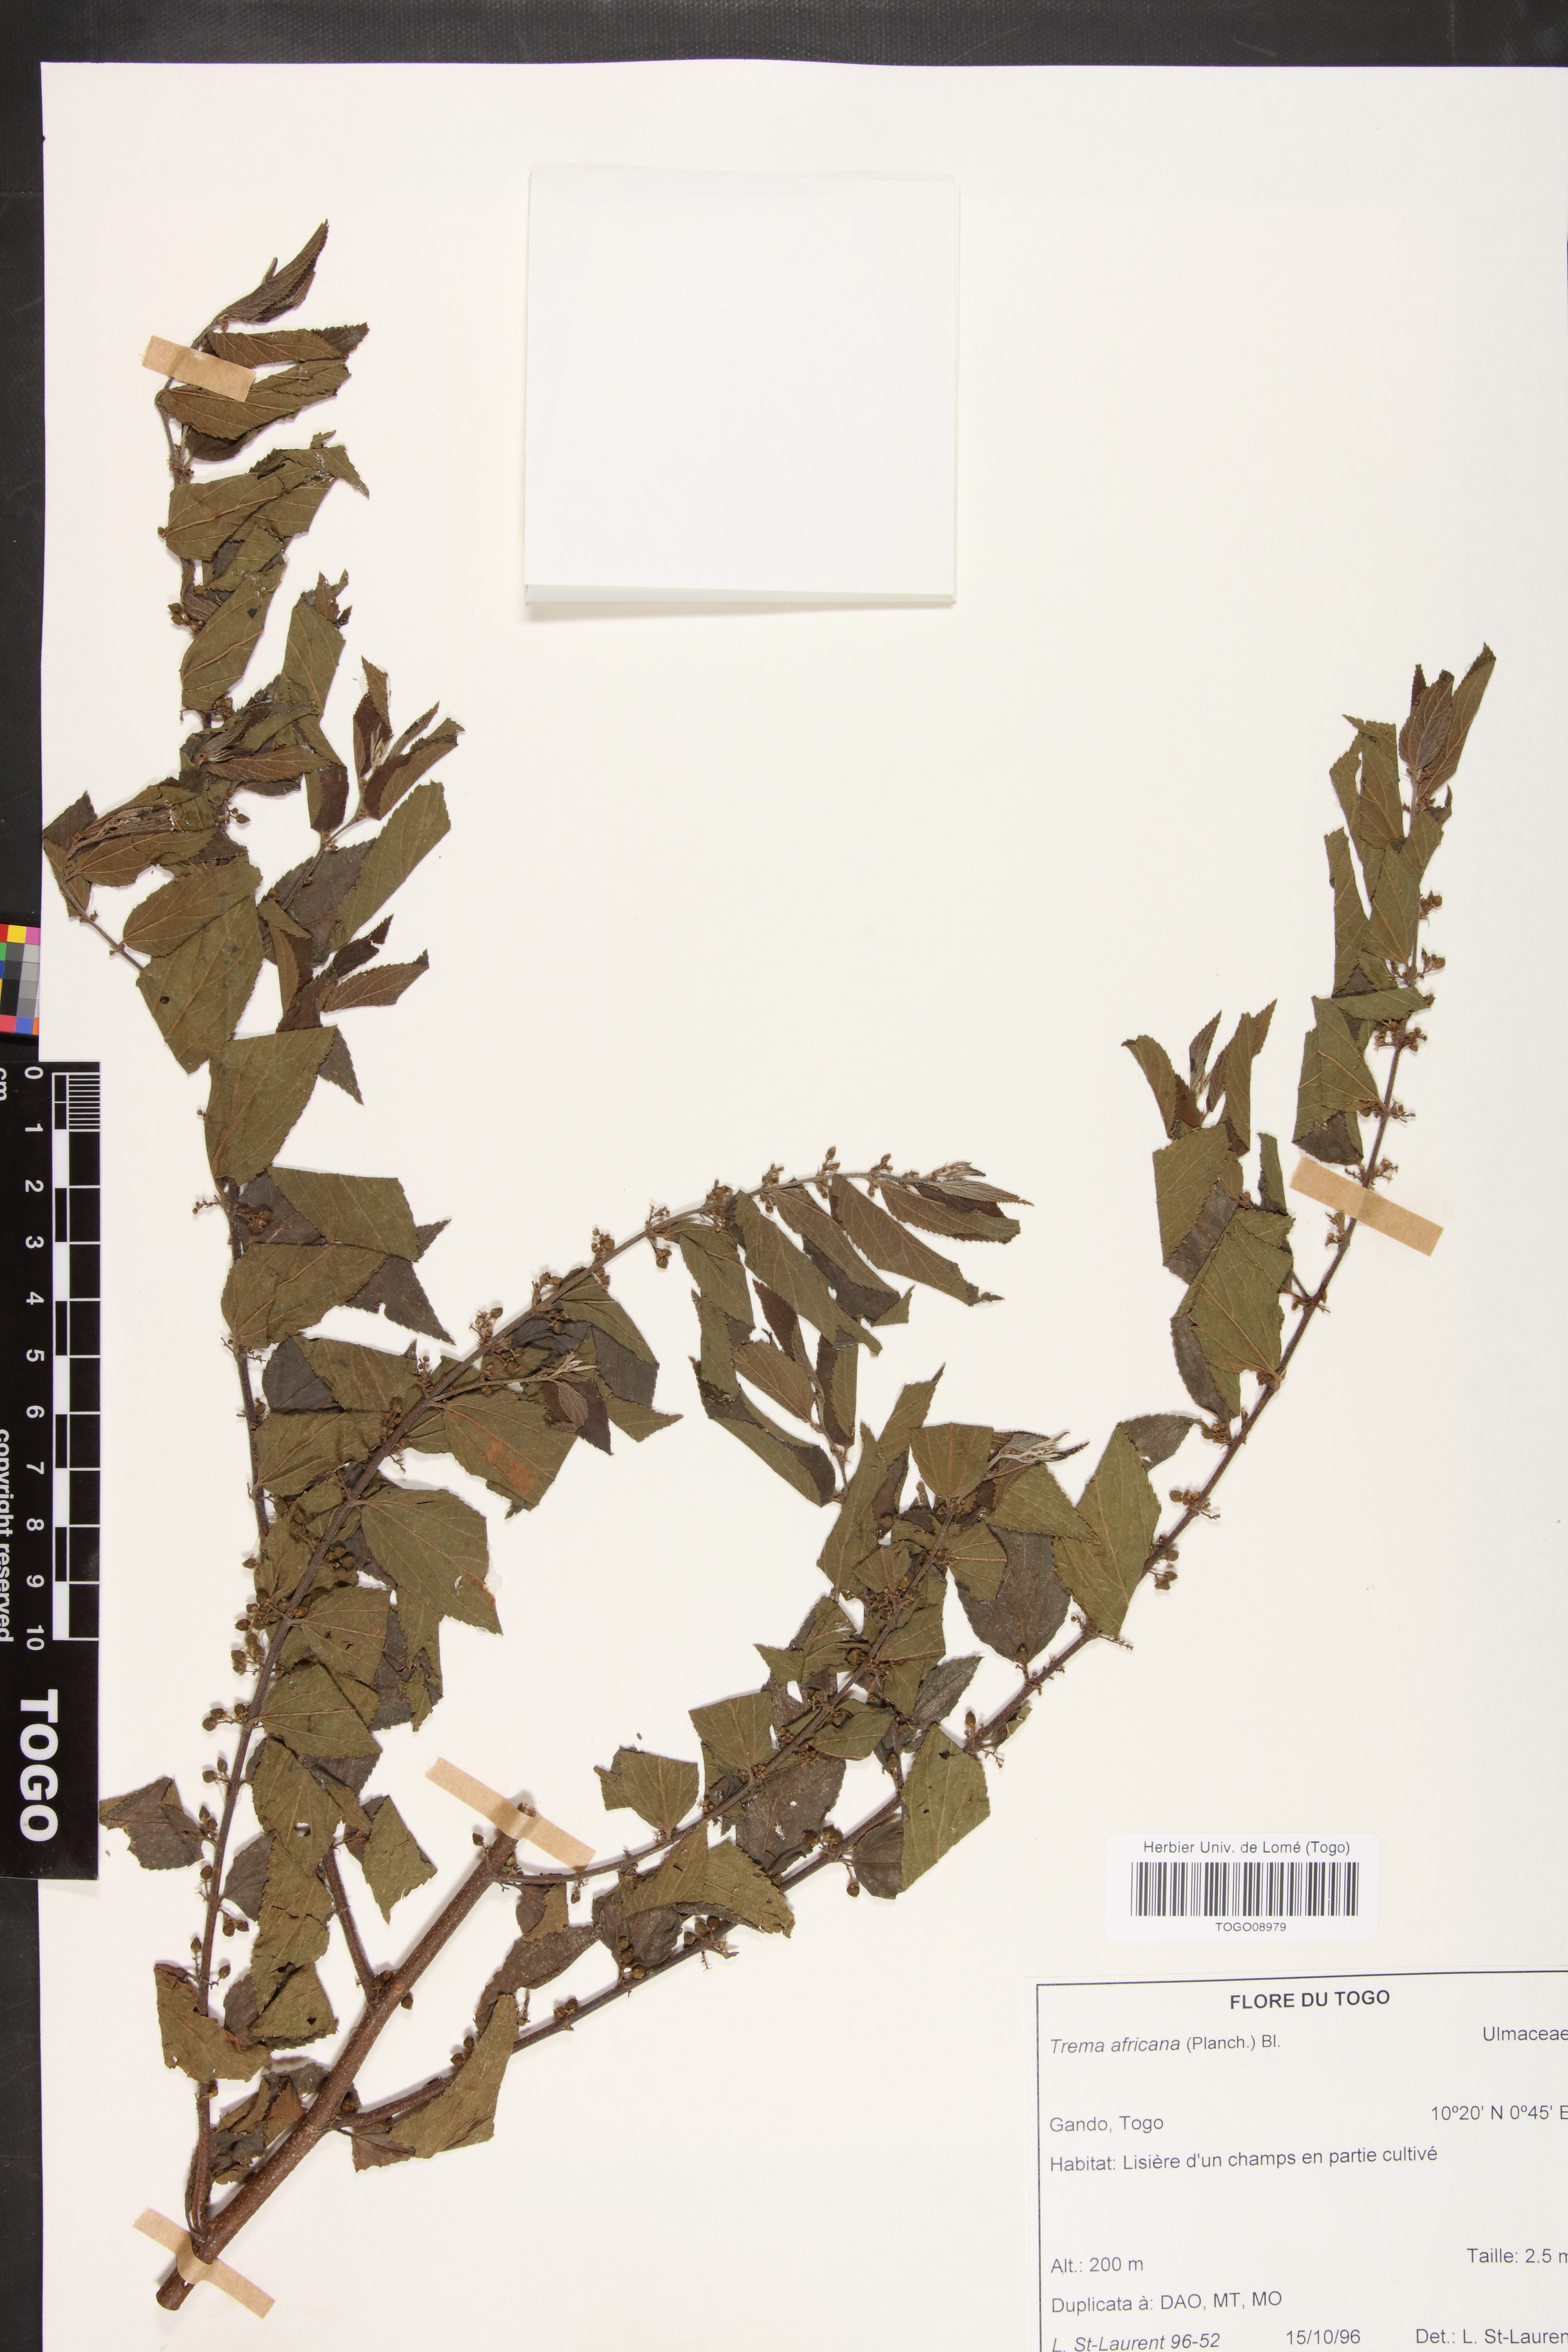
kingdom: Plantae
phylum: Tracheophyta
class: Magnoliopsida
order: Rosales
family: Cannabaceae
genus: Trema
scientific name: Trema orientale
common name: Indian charcoal tree
